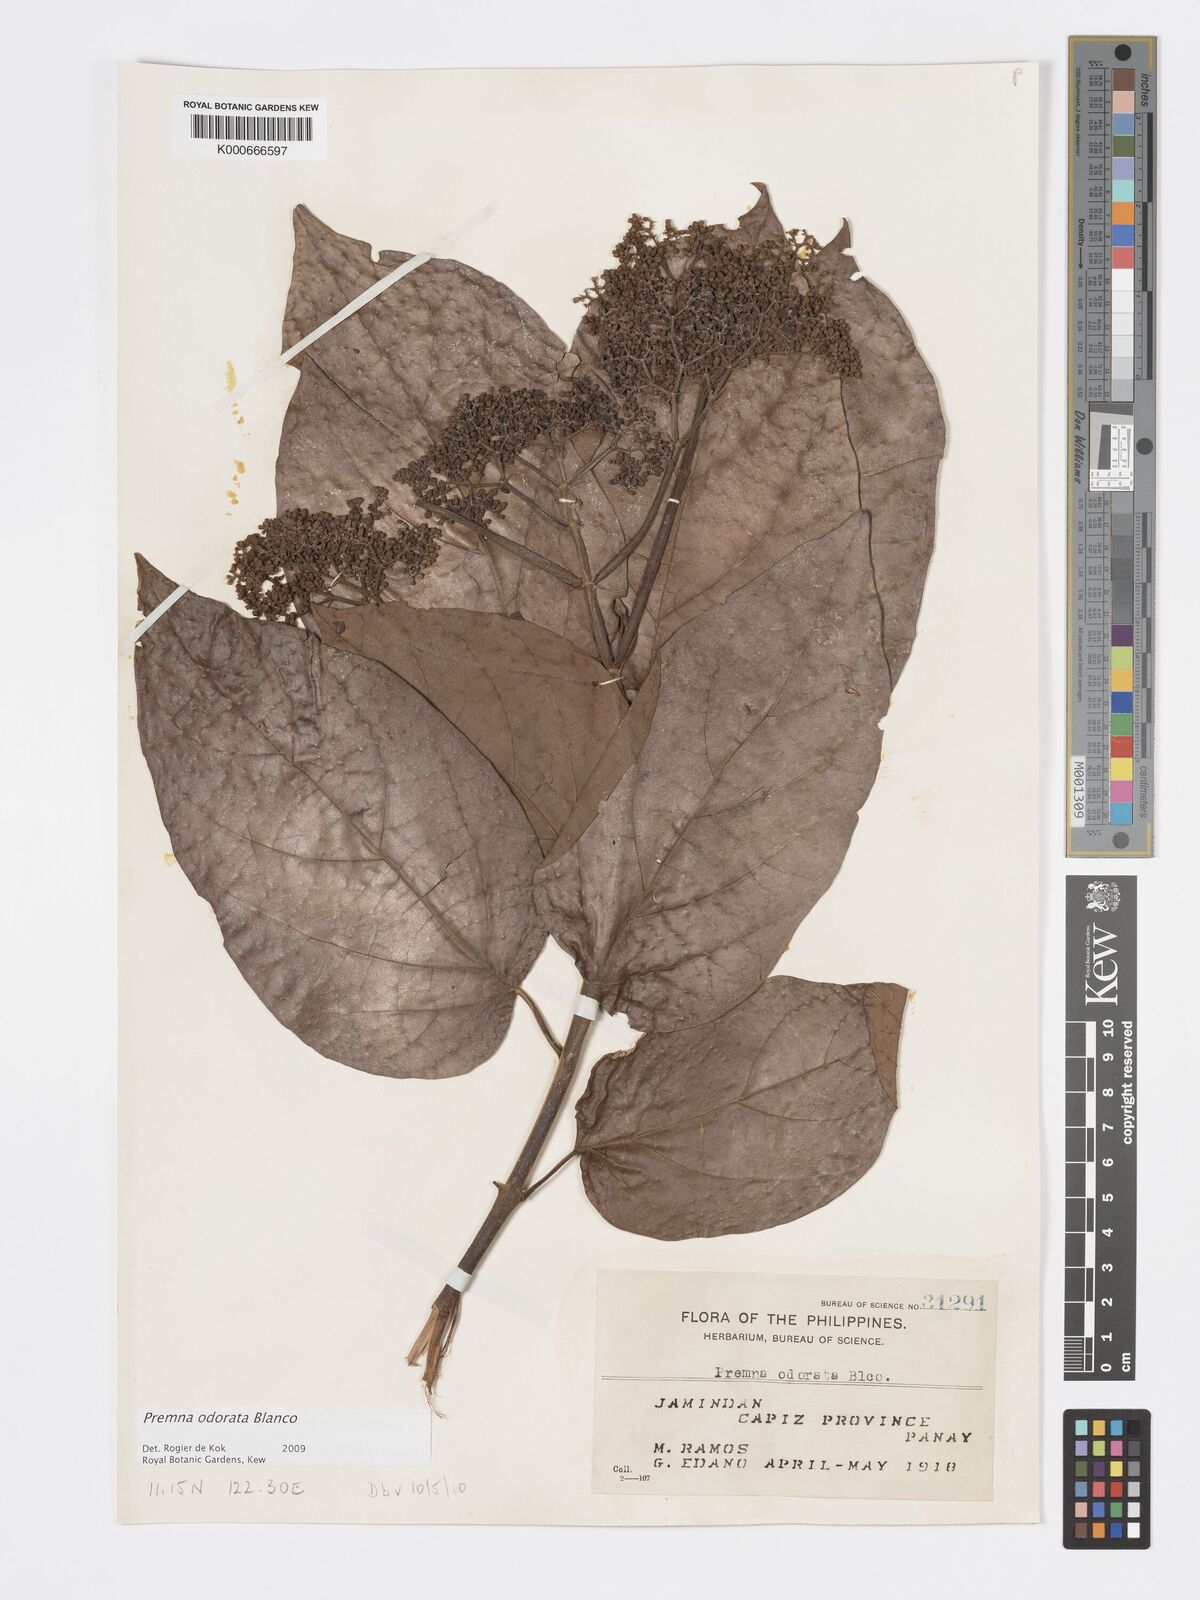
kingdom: Plantae
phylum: Tracheophyta
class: Magnoliopsida
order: Lamiales
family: Lamiaceae
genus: Premna
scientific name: Premna odorata
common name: Fragrant premna
